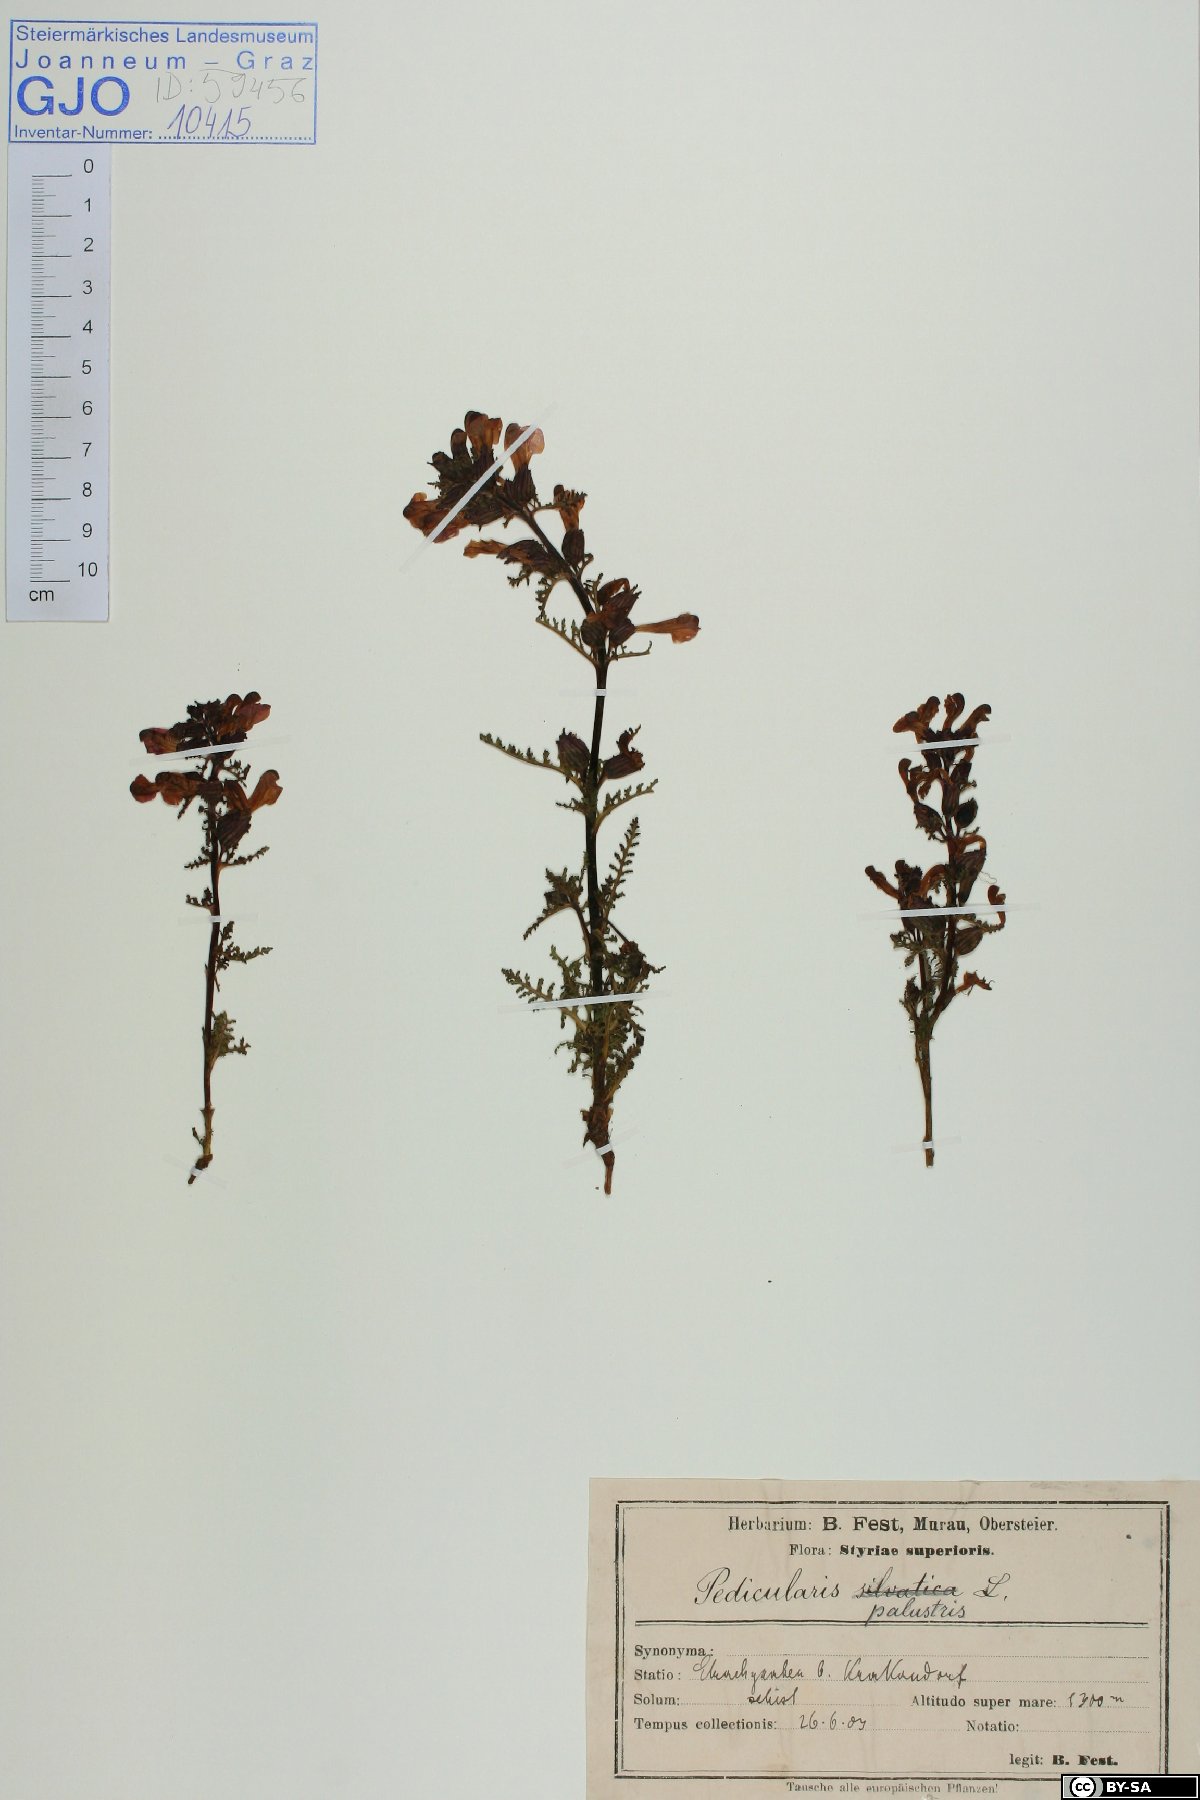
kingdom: Plantae
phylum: Tracheophyta
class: Magnoliopsida
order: Lamiales
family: Orobanchaceae
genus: Pedicularis
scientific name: Pedicularis palustris
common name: Marsh lousewort
